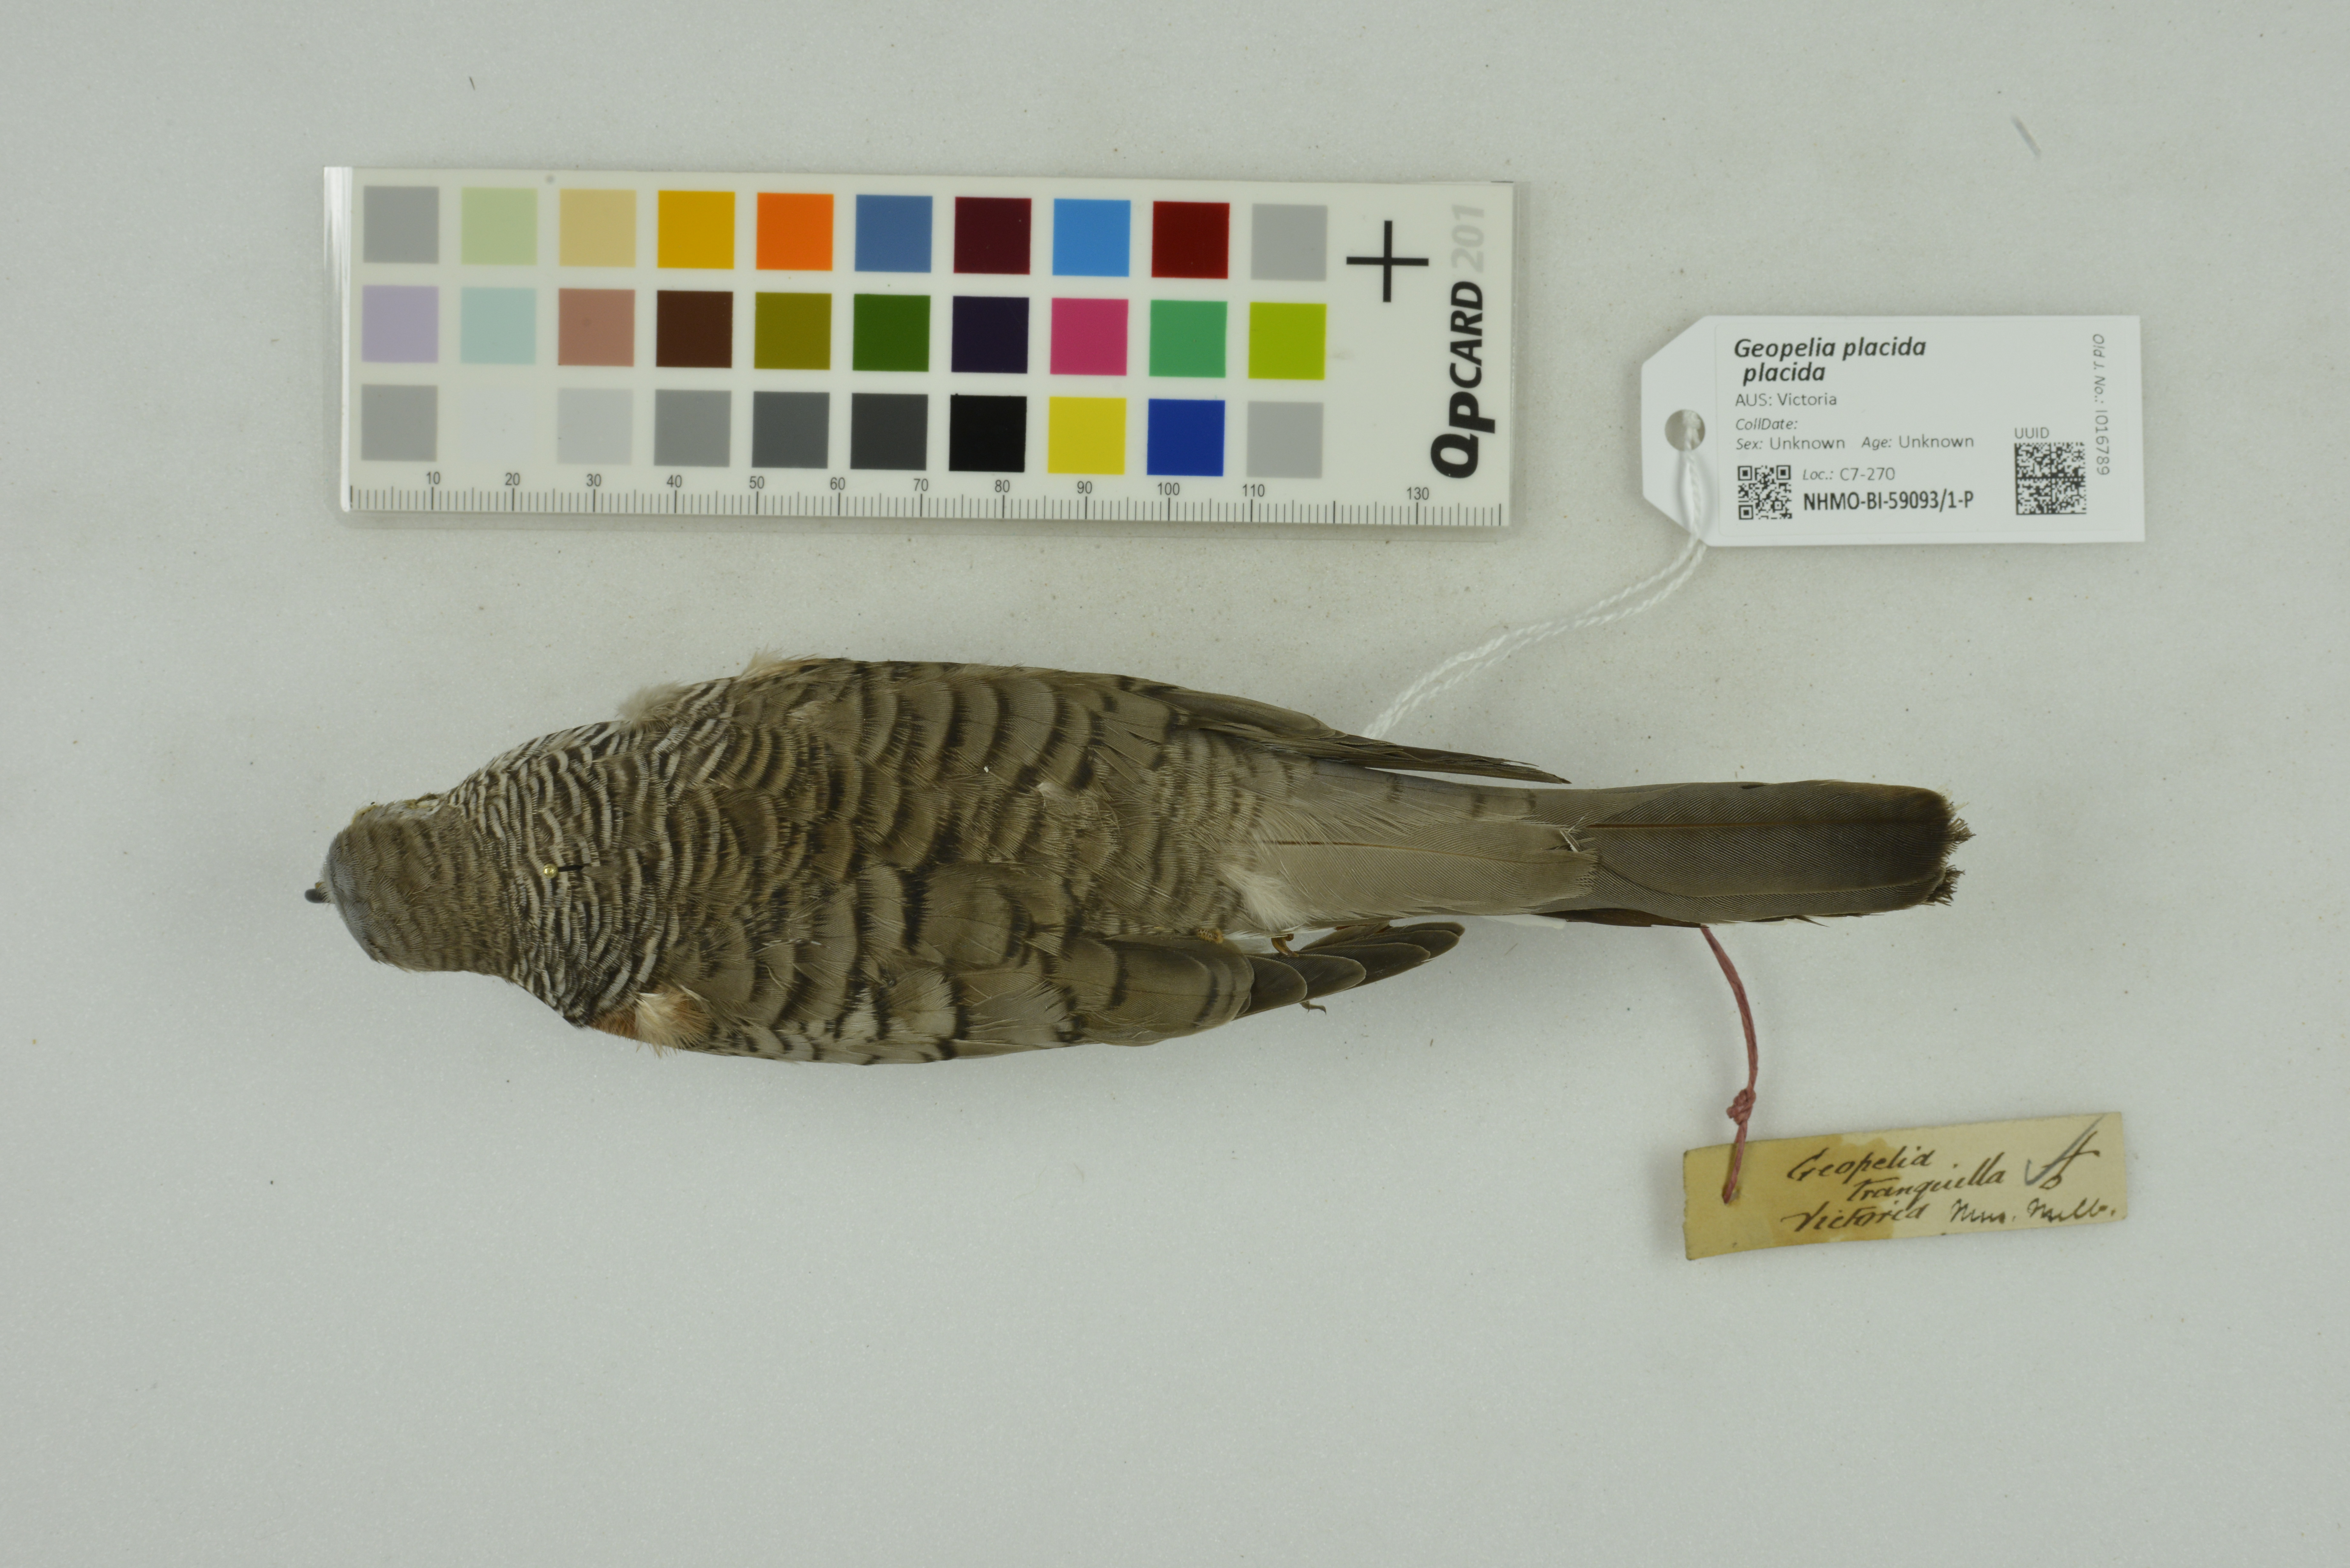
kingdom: Animalia
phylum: Chordata
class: Aves
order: Columbiformes
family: Columbidae
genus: Geopelia
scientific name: Geopelia placida
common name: Peaceful dove
